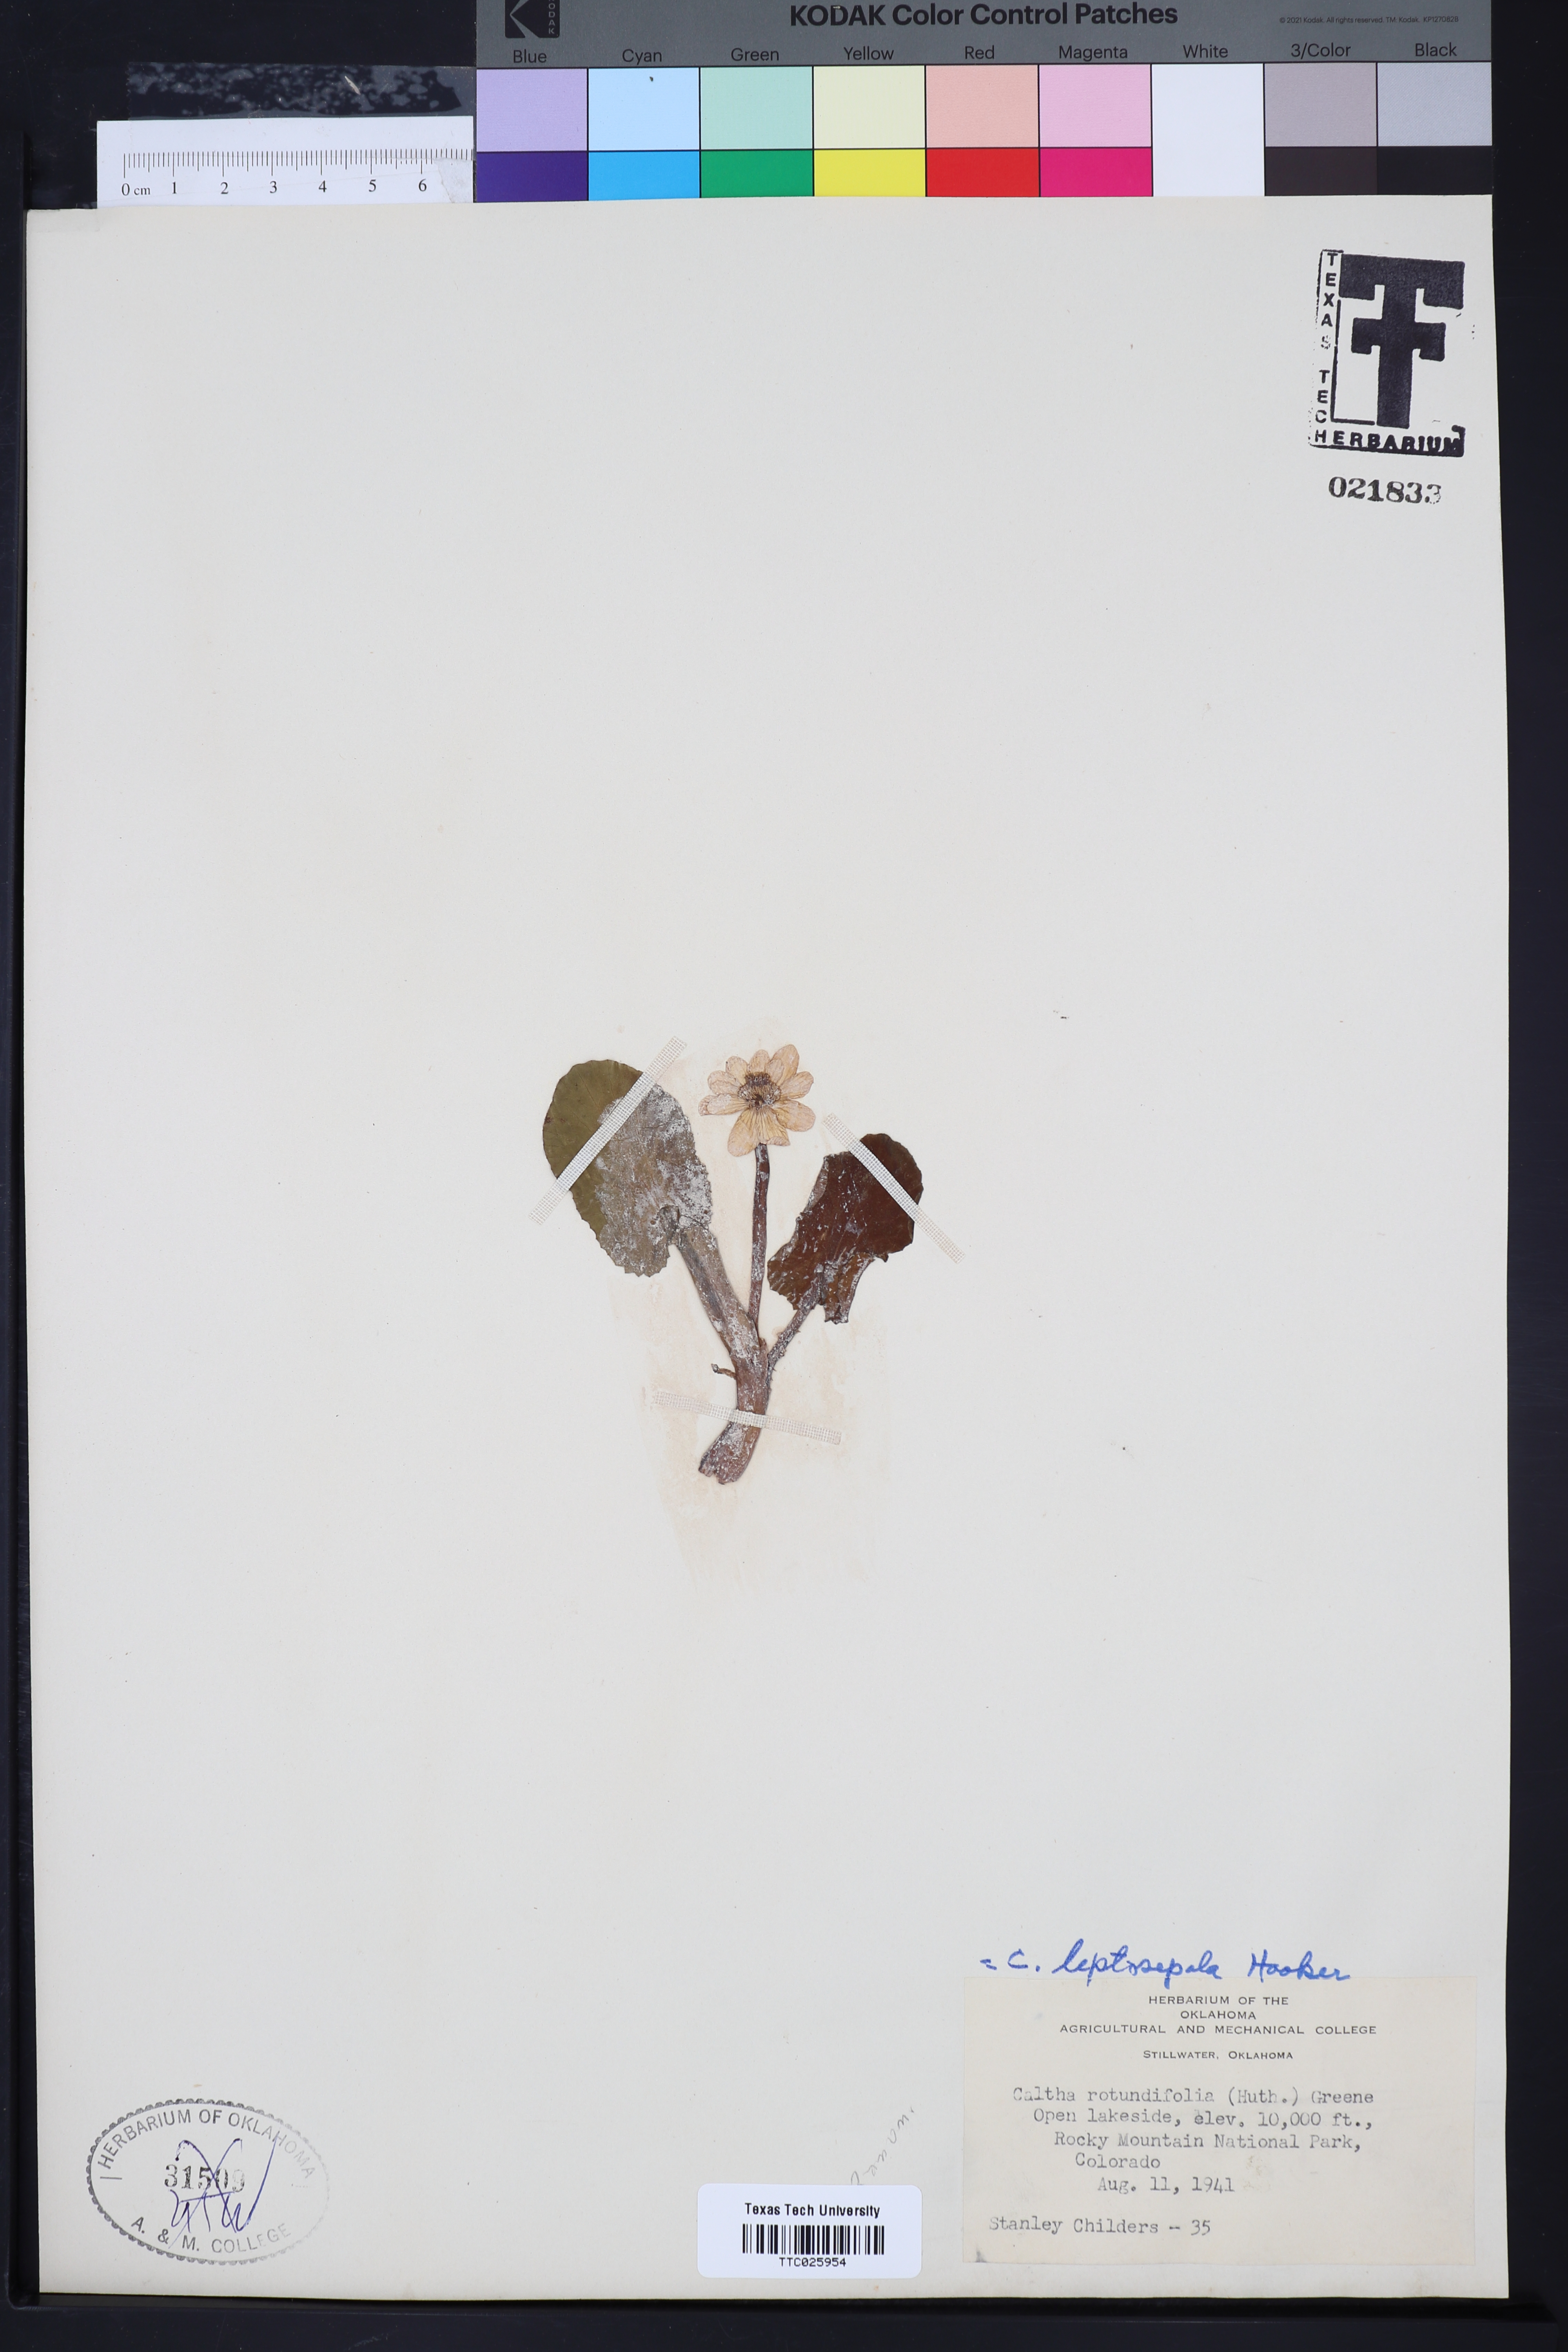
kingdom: Plantae
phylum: Tracheophyta
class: Magnoliopsida
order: Ranunculales
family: Ranunculaceae
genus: Caltha
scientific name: Caltha leptosepala
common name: Elkslip
